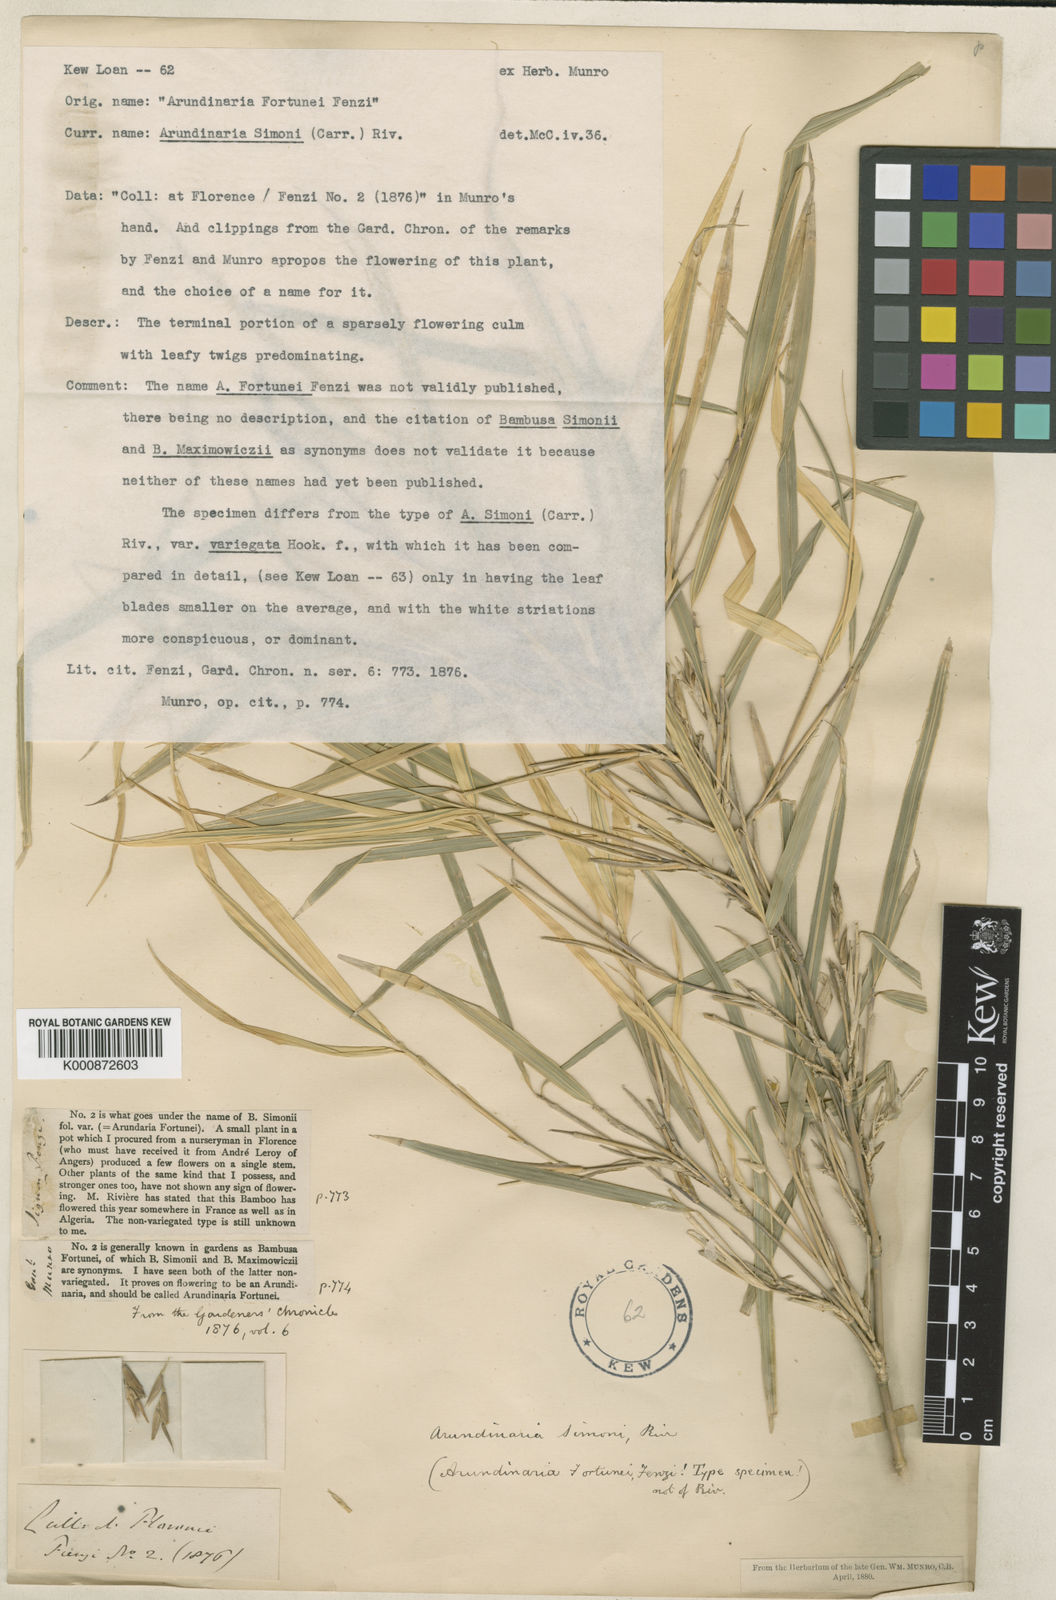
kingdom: Plantae
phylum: Tracheophyta
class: Liliopsida
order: Poales
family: Poaceae
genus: Arundinaria
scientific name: Arundinaria
